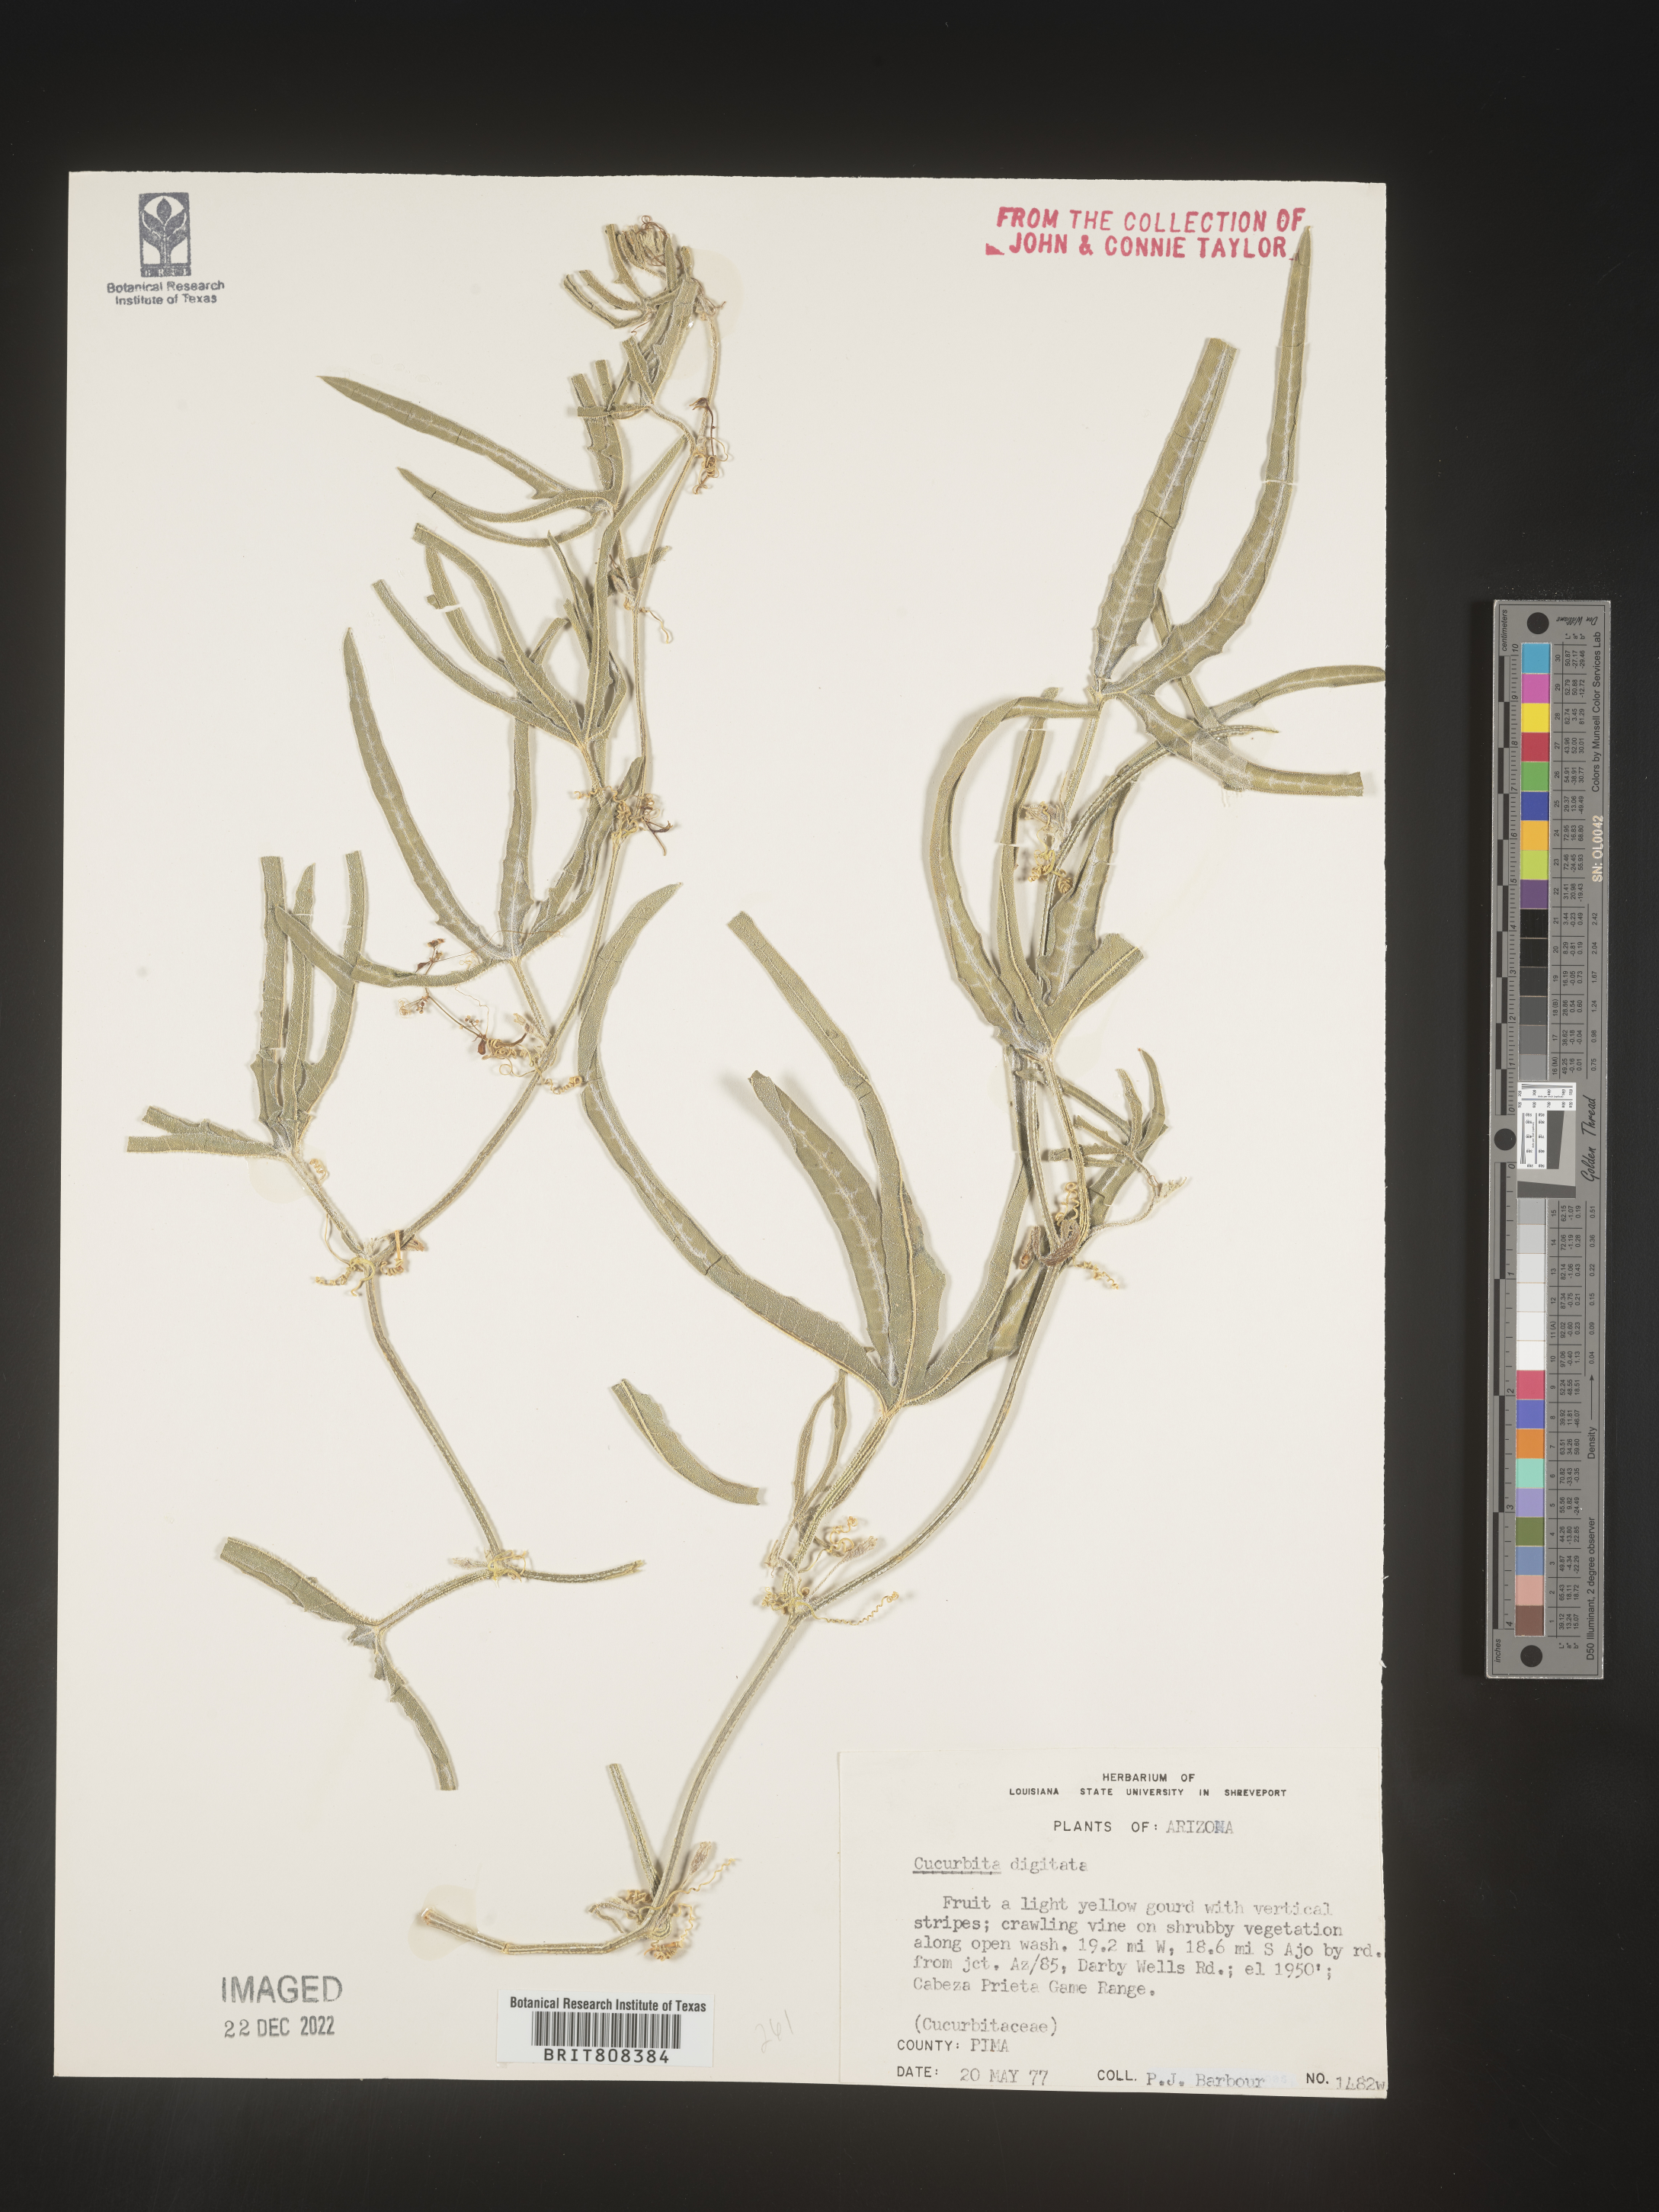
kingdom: Plantae
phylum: Tracheophyta
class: Magnoliopsida
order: Cucurbitales
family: Cucurbitaceae
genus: Cucurbita
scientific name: Cucurbita digitata
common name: Finger-leaf gourd
